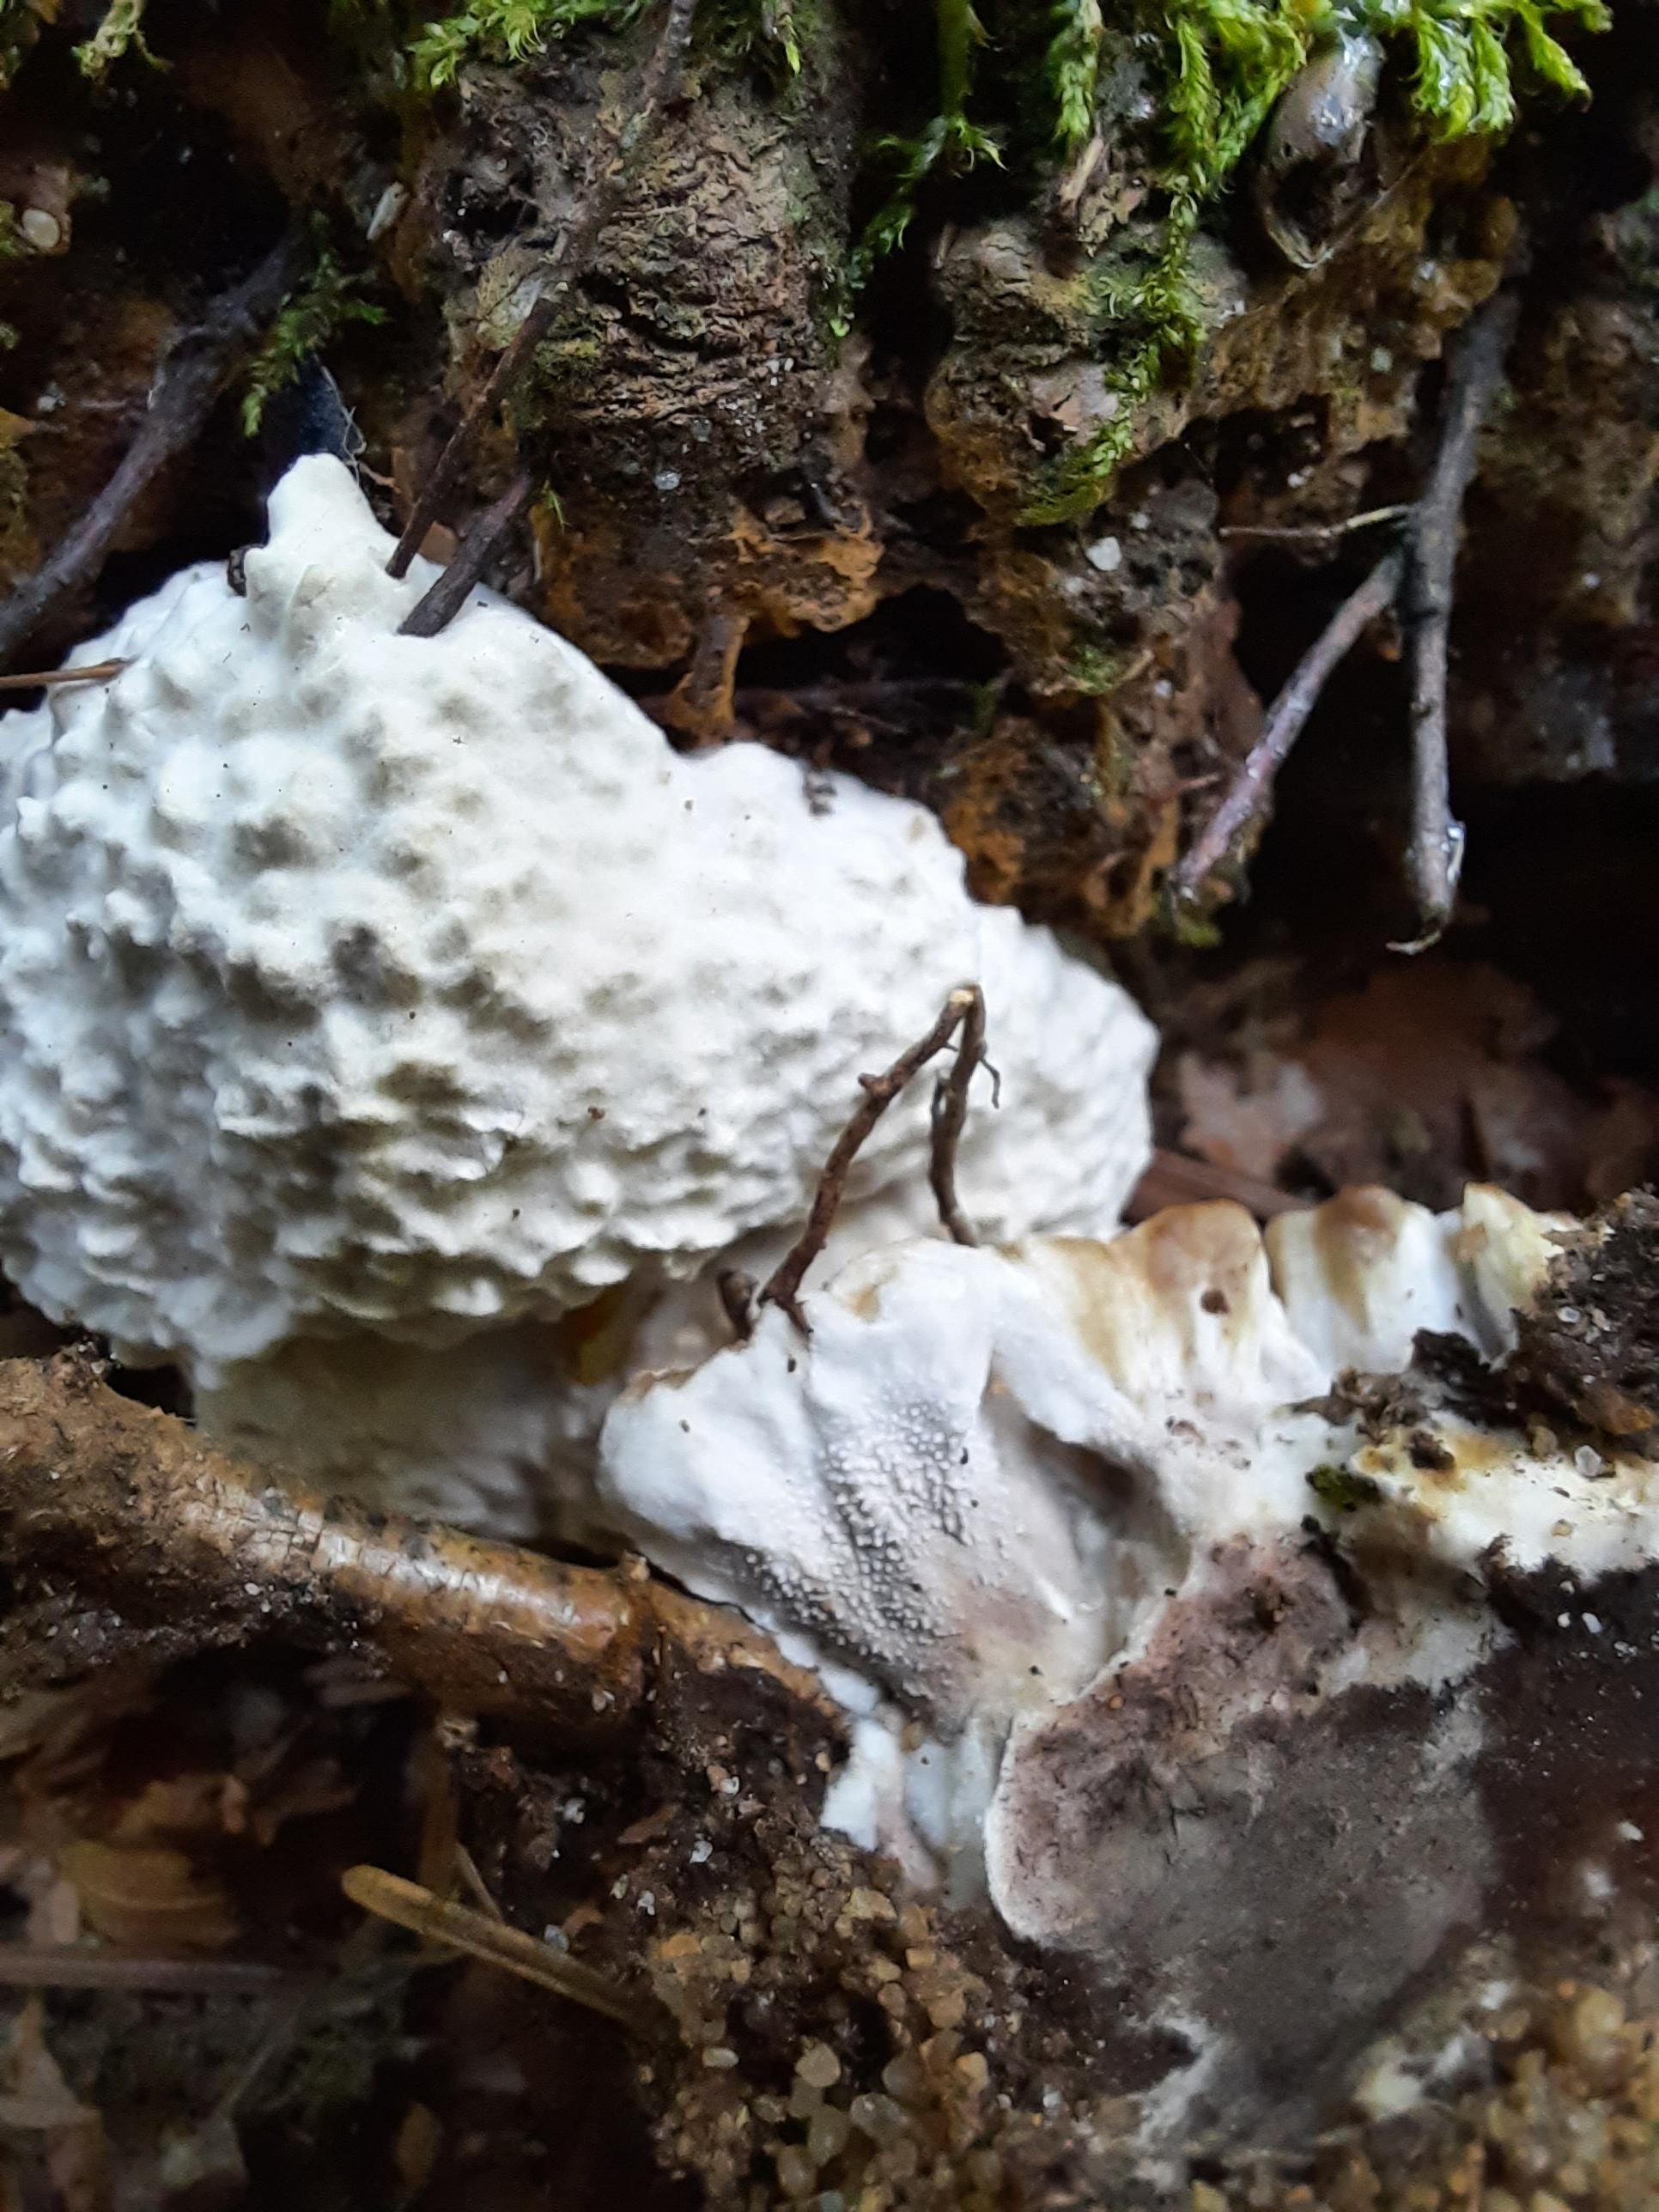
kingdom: Fungi
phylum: Basidiomycota
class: Agaricomycetes
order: Thelephorales
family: Thelephoraceae
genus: Phellodon
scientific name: Phellodon confluens
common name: pjaltet duftpigsvamp
